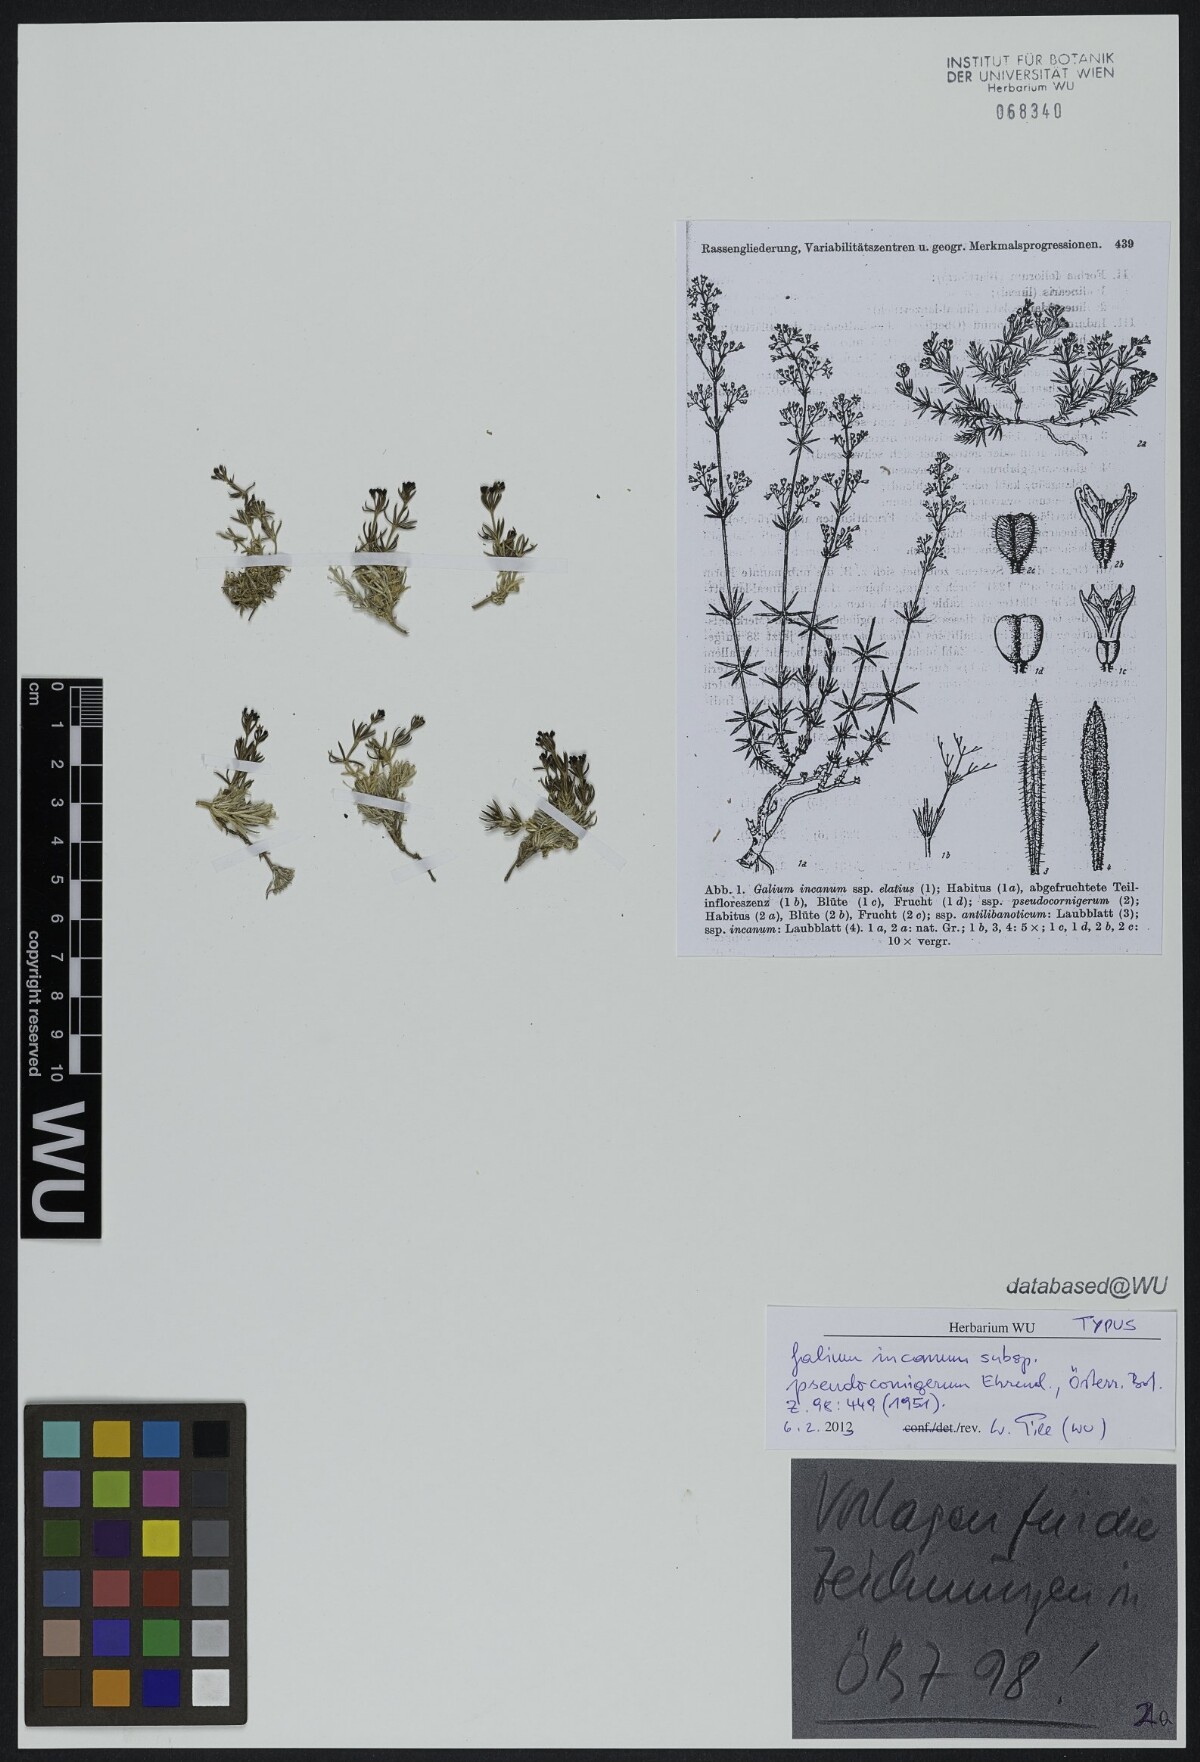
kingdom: Plantae
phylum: Tracheophyta
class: Magnoliopsida
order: Gentianales
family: Rubiaceae
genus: Galium
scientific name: Galium incanum
